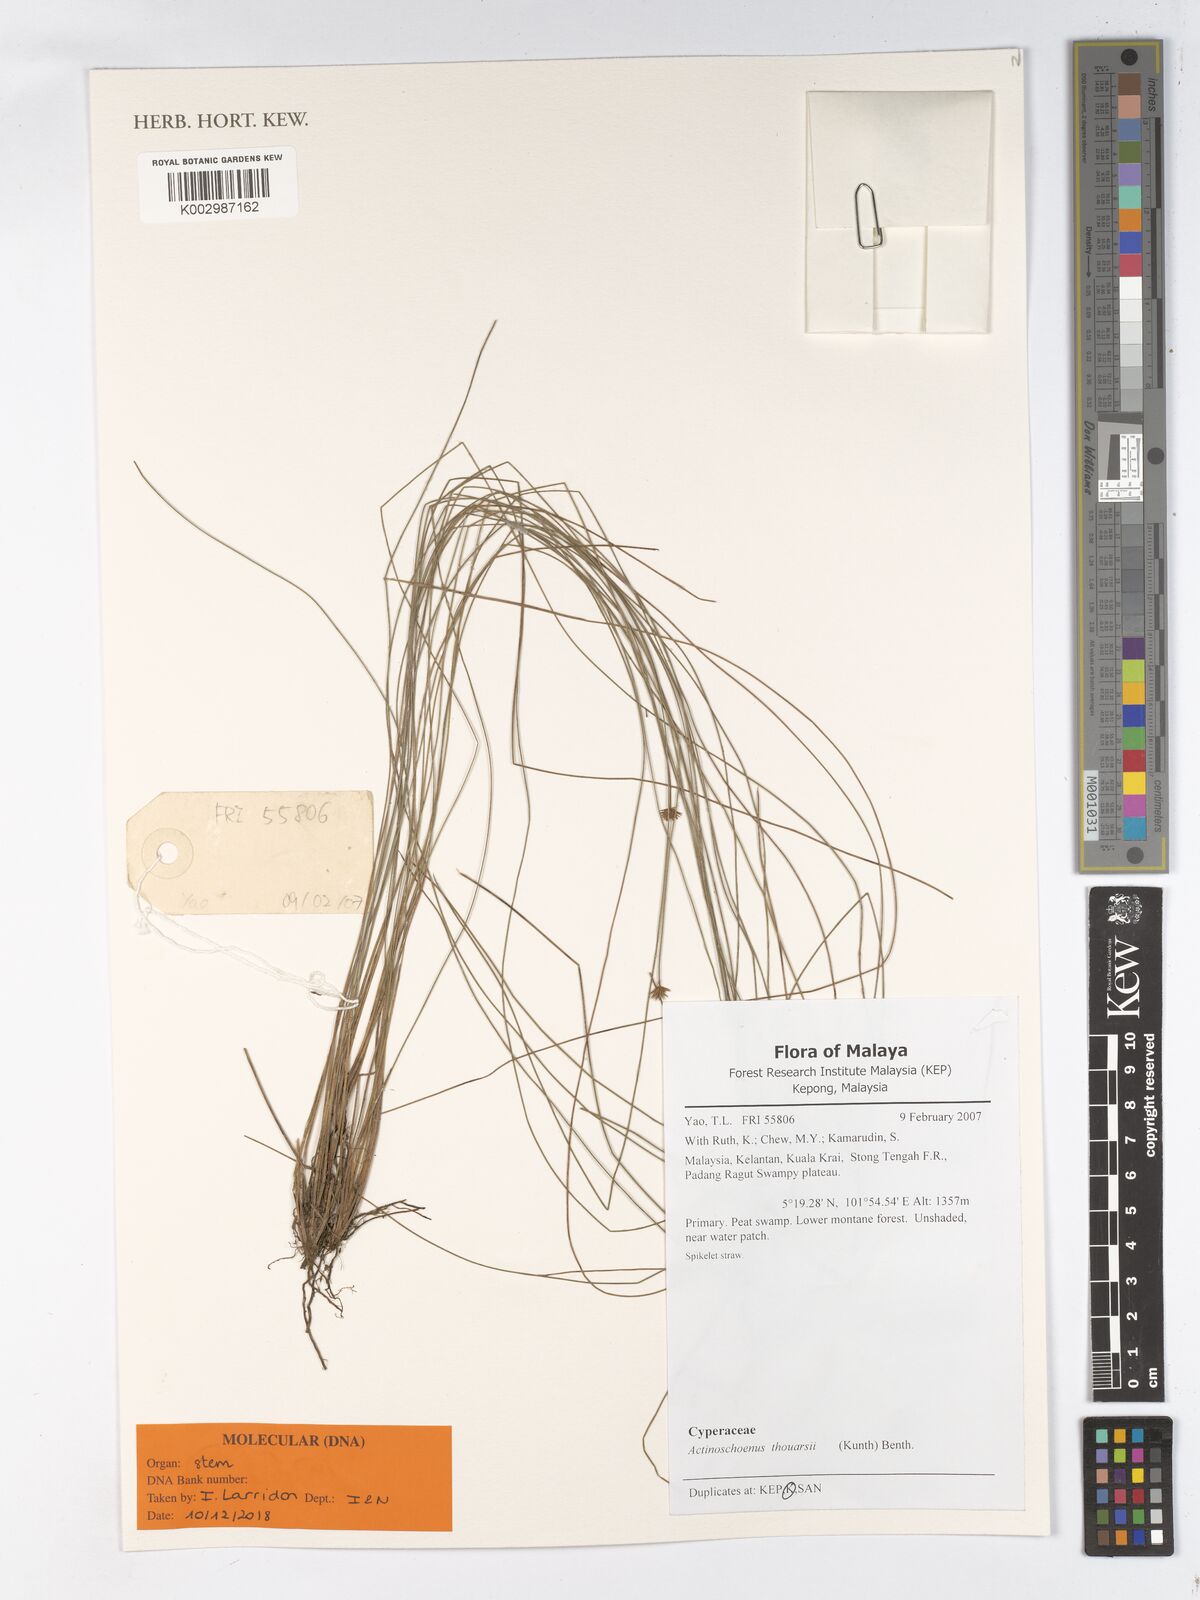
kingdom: Plantae
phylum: Tracheophyta
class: Liliopsida
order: Poales
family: Cyperaceae
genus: Actinoschoenus
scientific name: Actinoschoenus aphyllus
